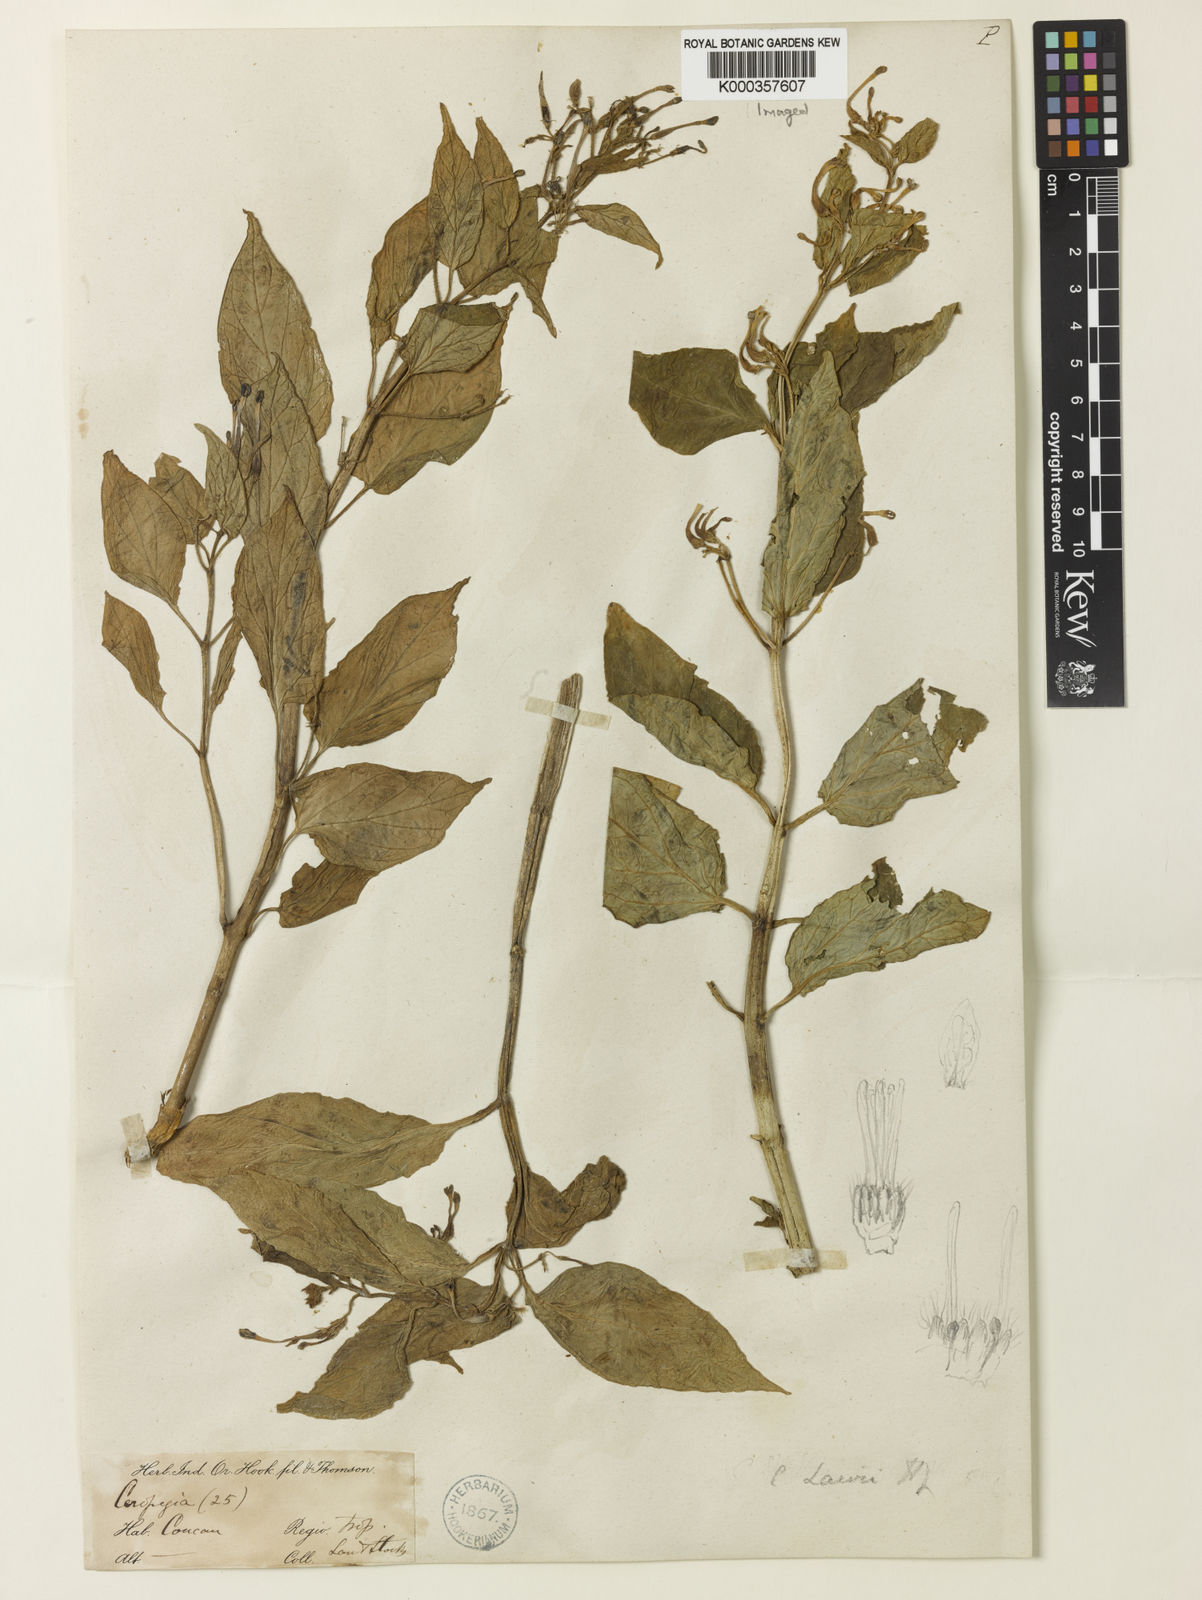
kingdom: Plantae
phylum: Tracheophyta
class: Magnoliopsida
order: Gentianales
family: Apocynaceae
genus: Ceropegia
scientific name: Ceropegia lawii
